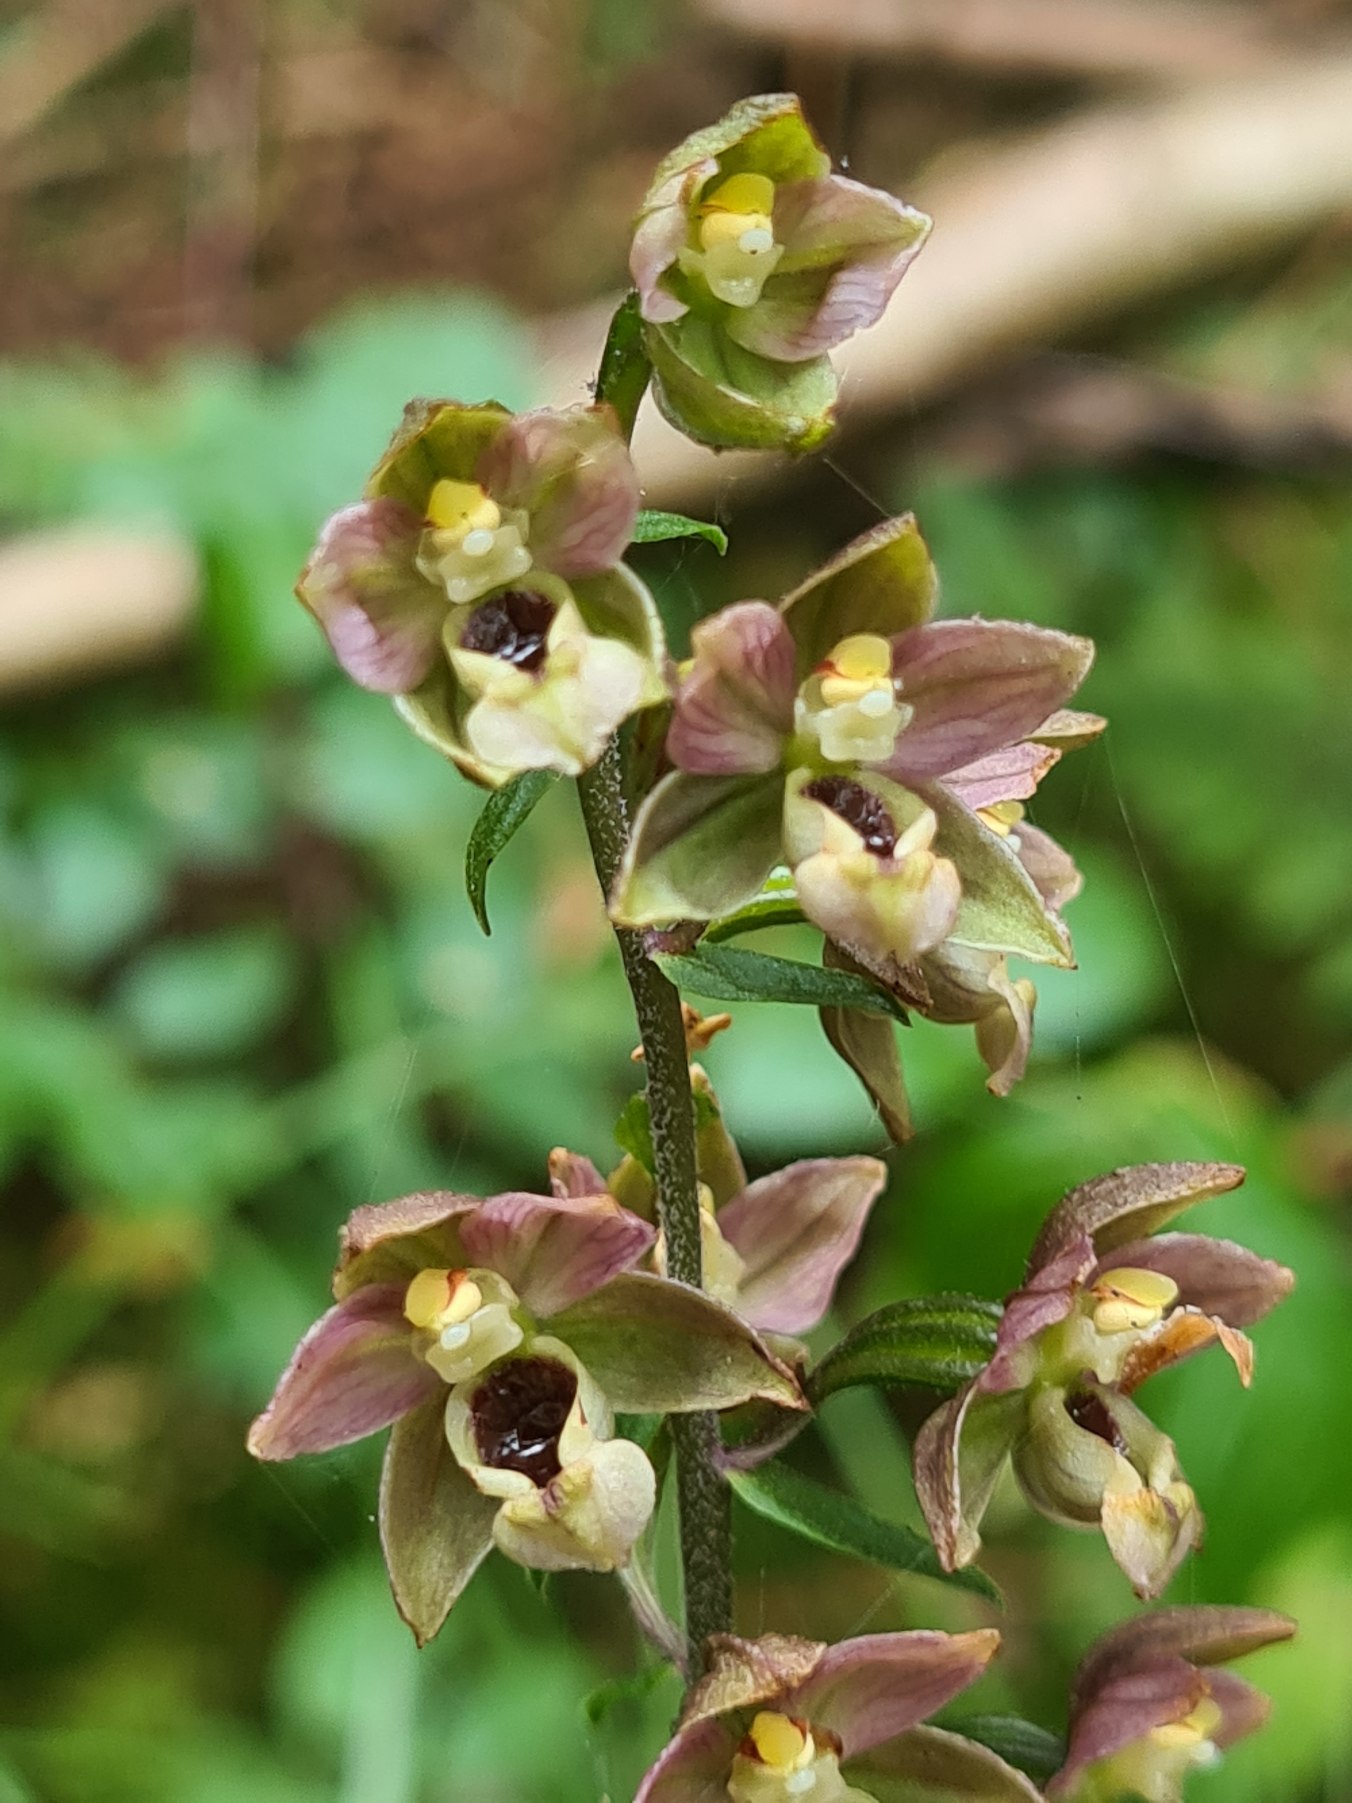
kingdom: Plantae
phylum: Tracheophyta
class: Liliopsida
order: Asparagales
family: Orchidaceae
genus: Epipactis
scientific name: Epipactis helleborine
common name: Skov-hullæbe
